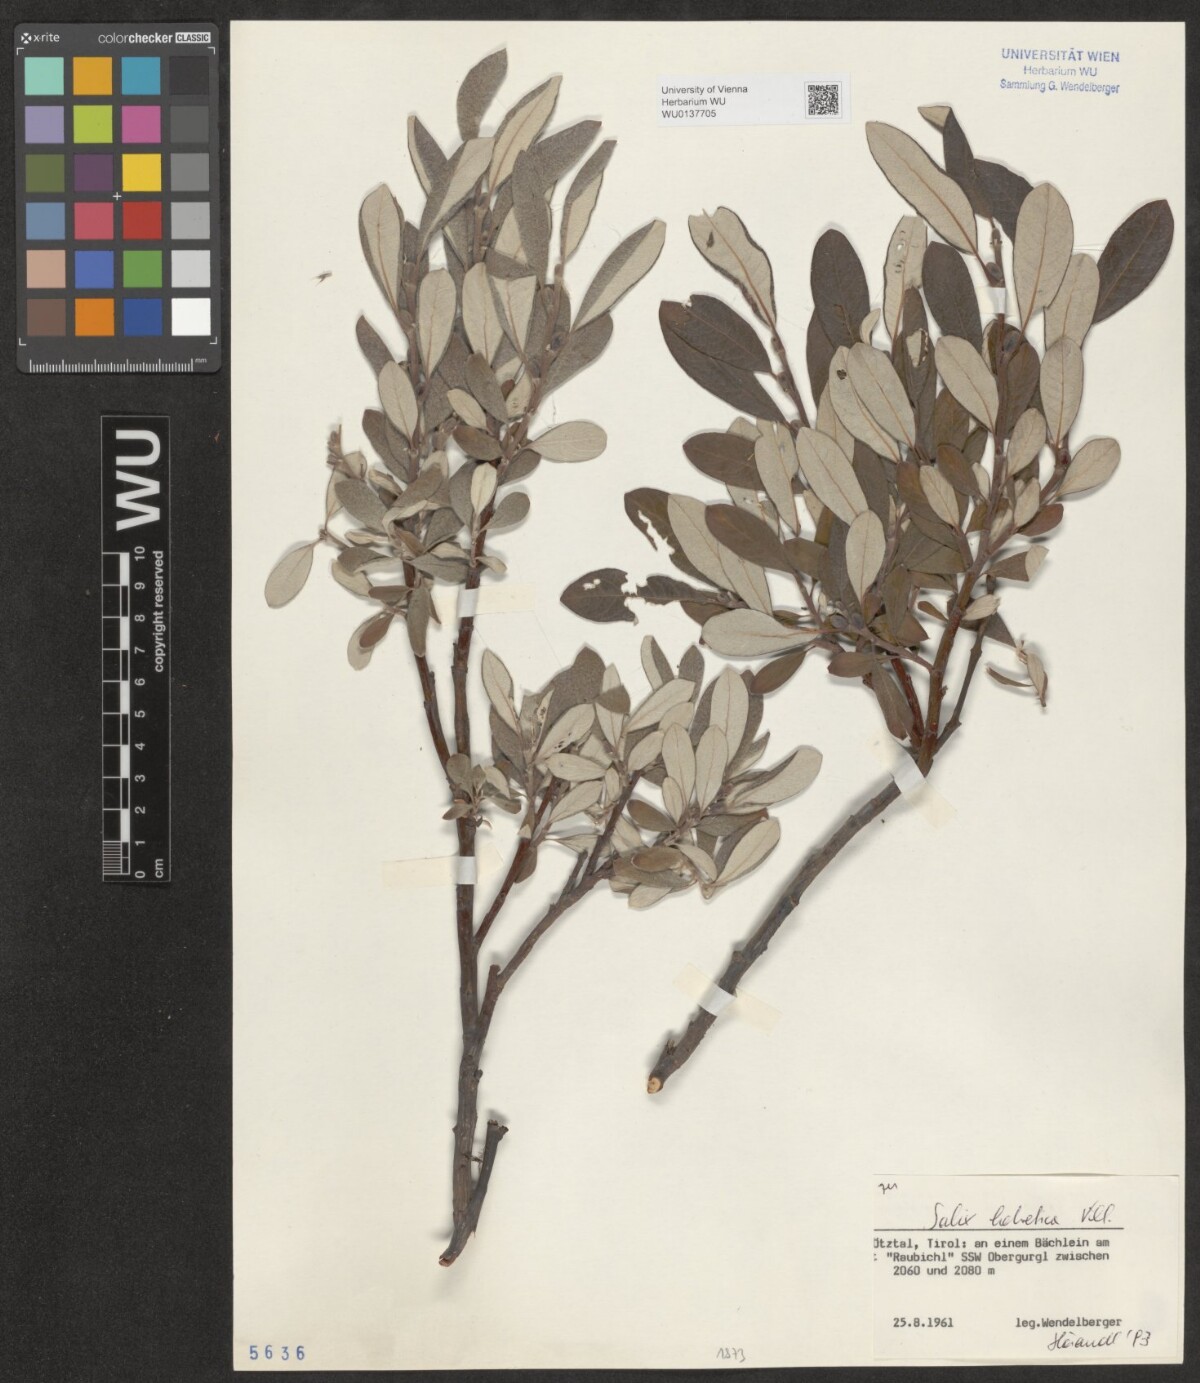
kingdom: Plantae
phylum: Tracheophyta
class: Magnoliopsida
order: Malpighiales
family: Salicaceae
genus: Salix
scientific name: Salix helvetica
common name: Swiss willow
